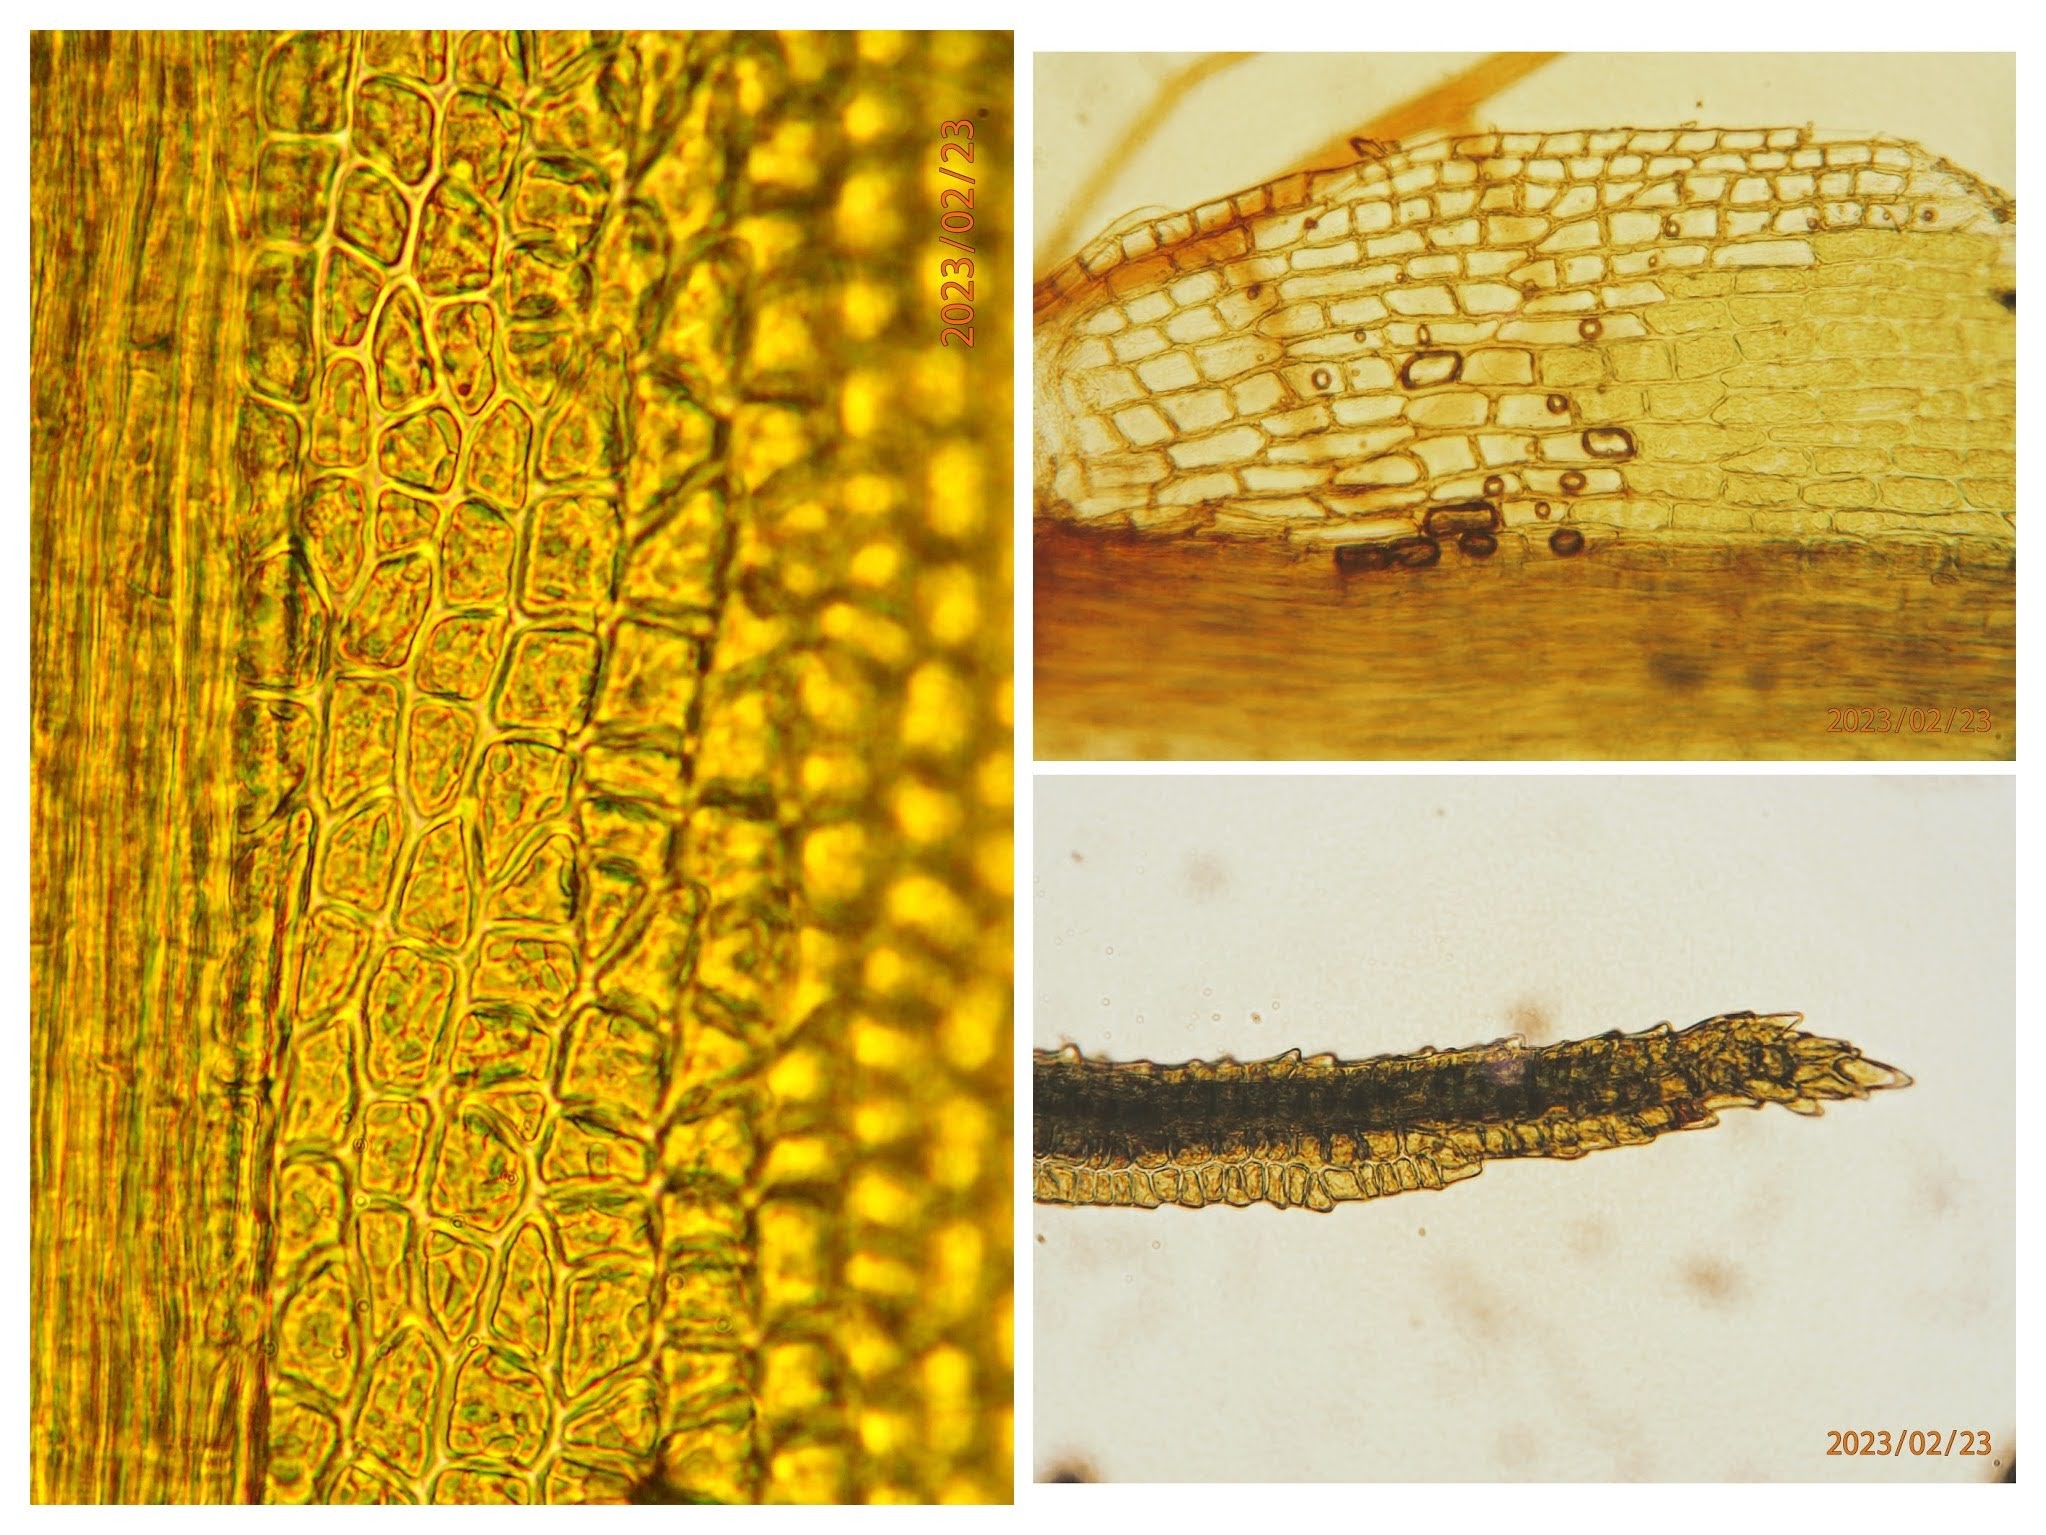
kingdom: Plantae
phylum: Bryophyta
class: Bryopsida
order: Dicranales
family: Dicranaceae
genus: Orthodicranum
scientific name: Orthodicranum montanum
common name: Tæt tyndvinge
